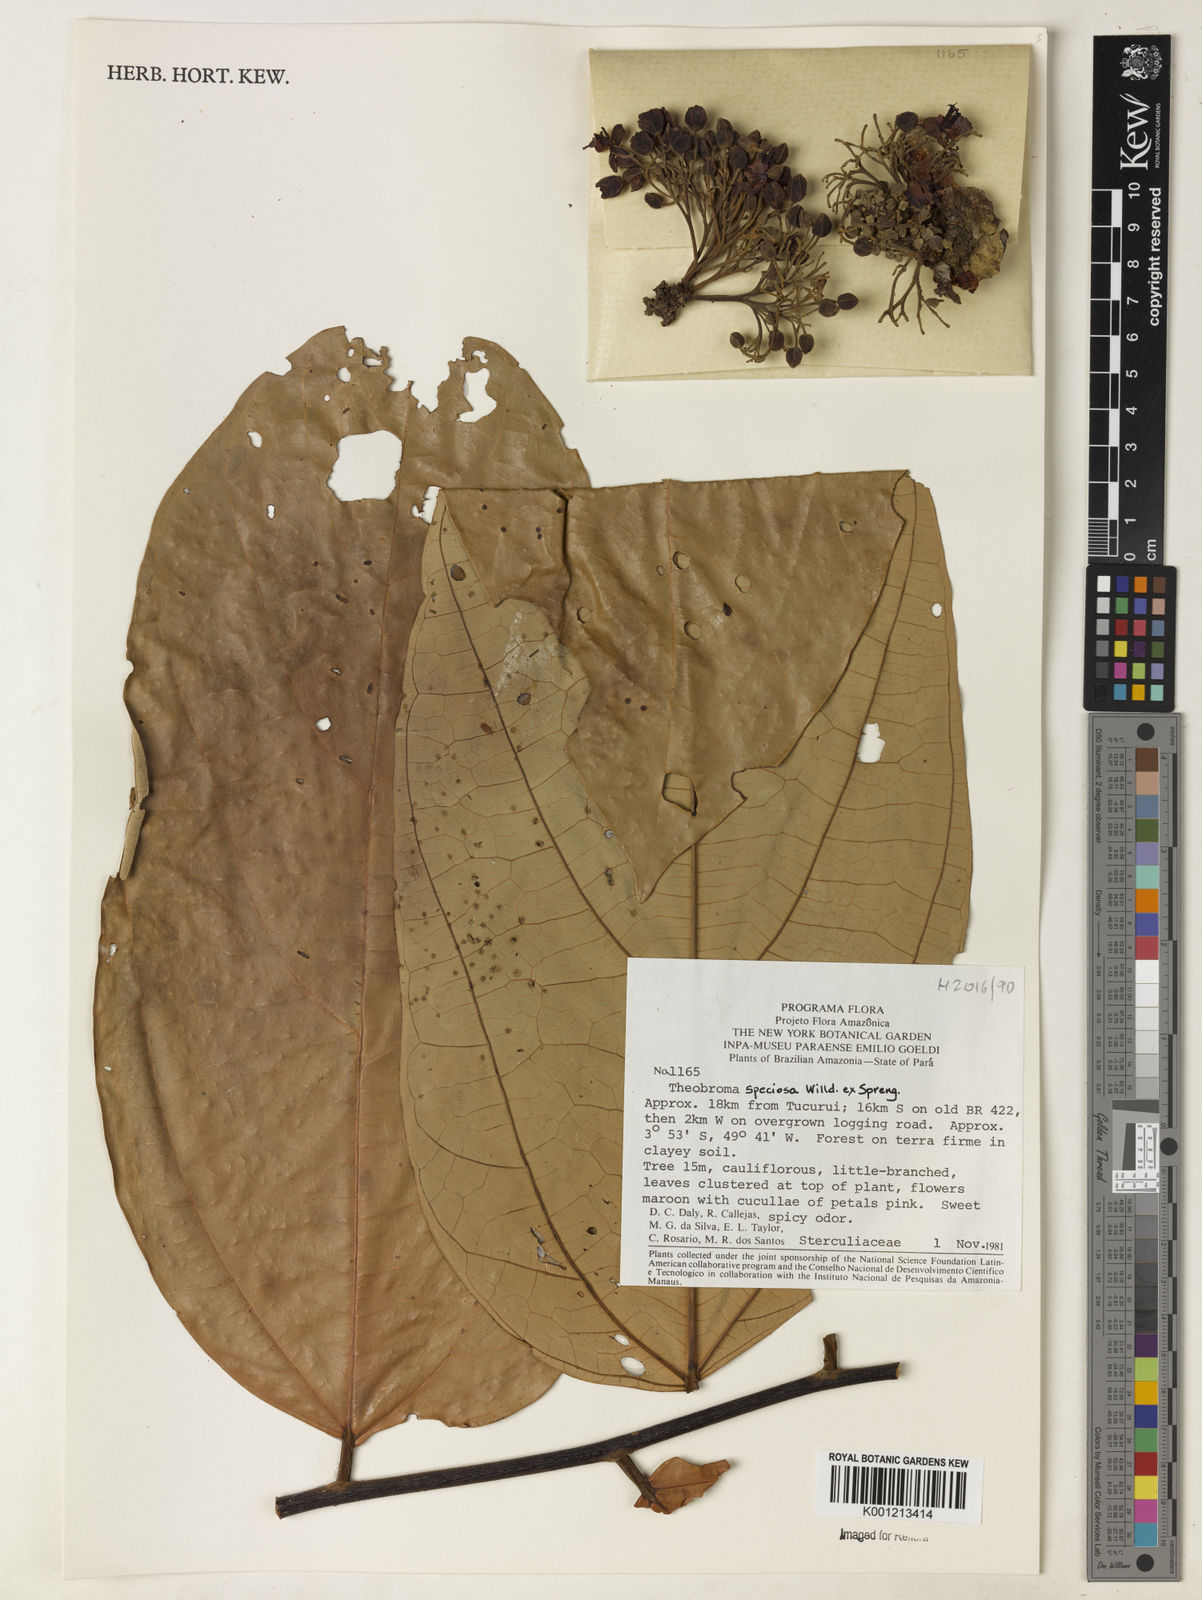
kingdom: Plantae
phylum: Tracheophyta
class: Magnoliopsida
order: Malvales
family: Malvaceae
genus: Theobroma
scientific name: Theobroma speciosum
